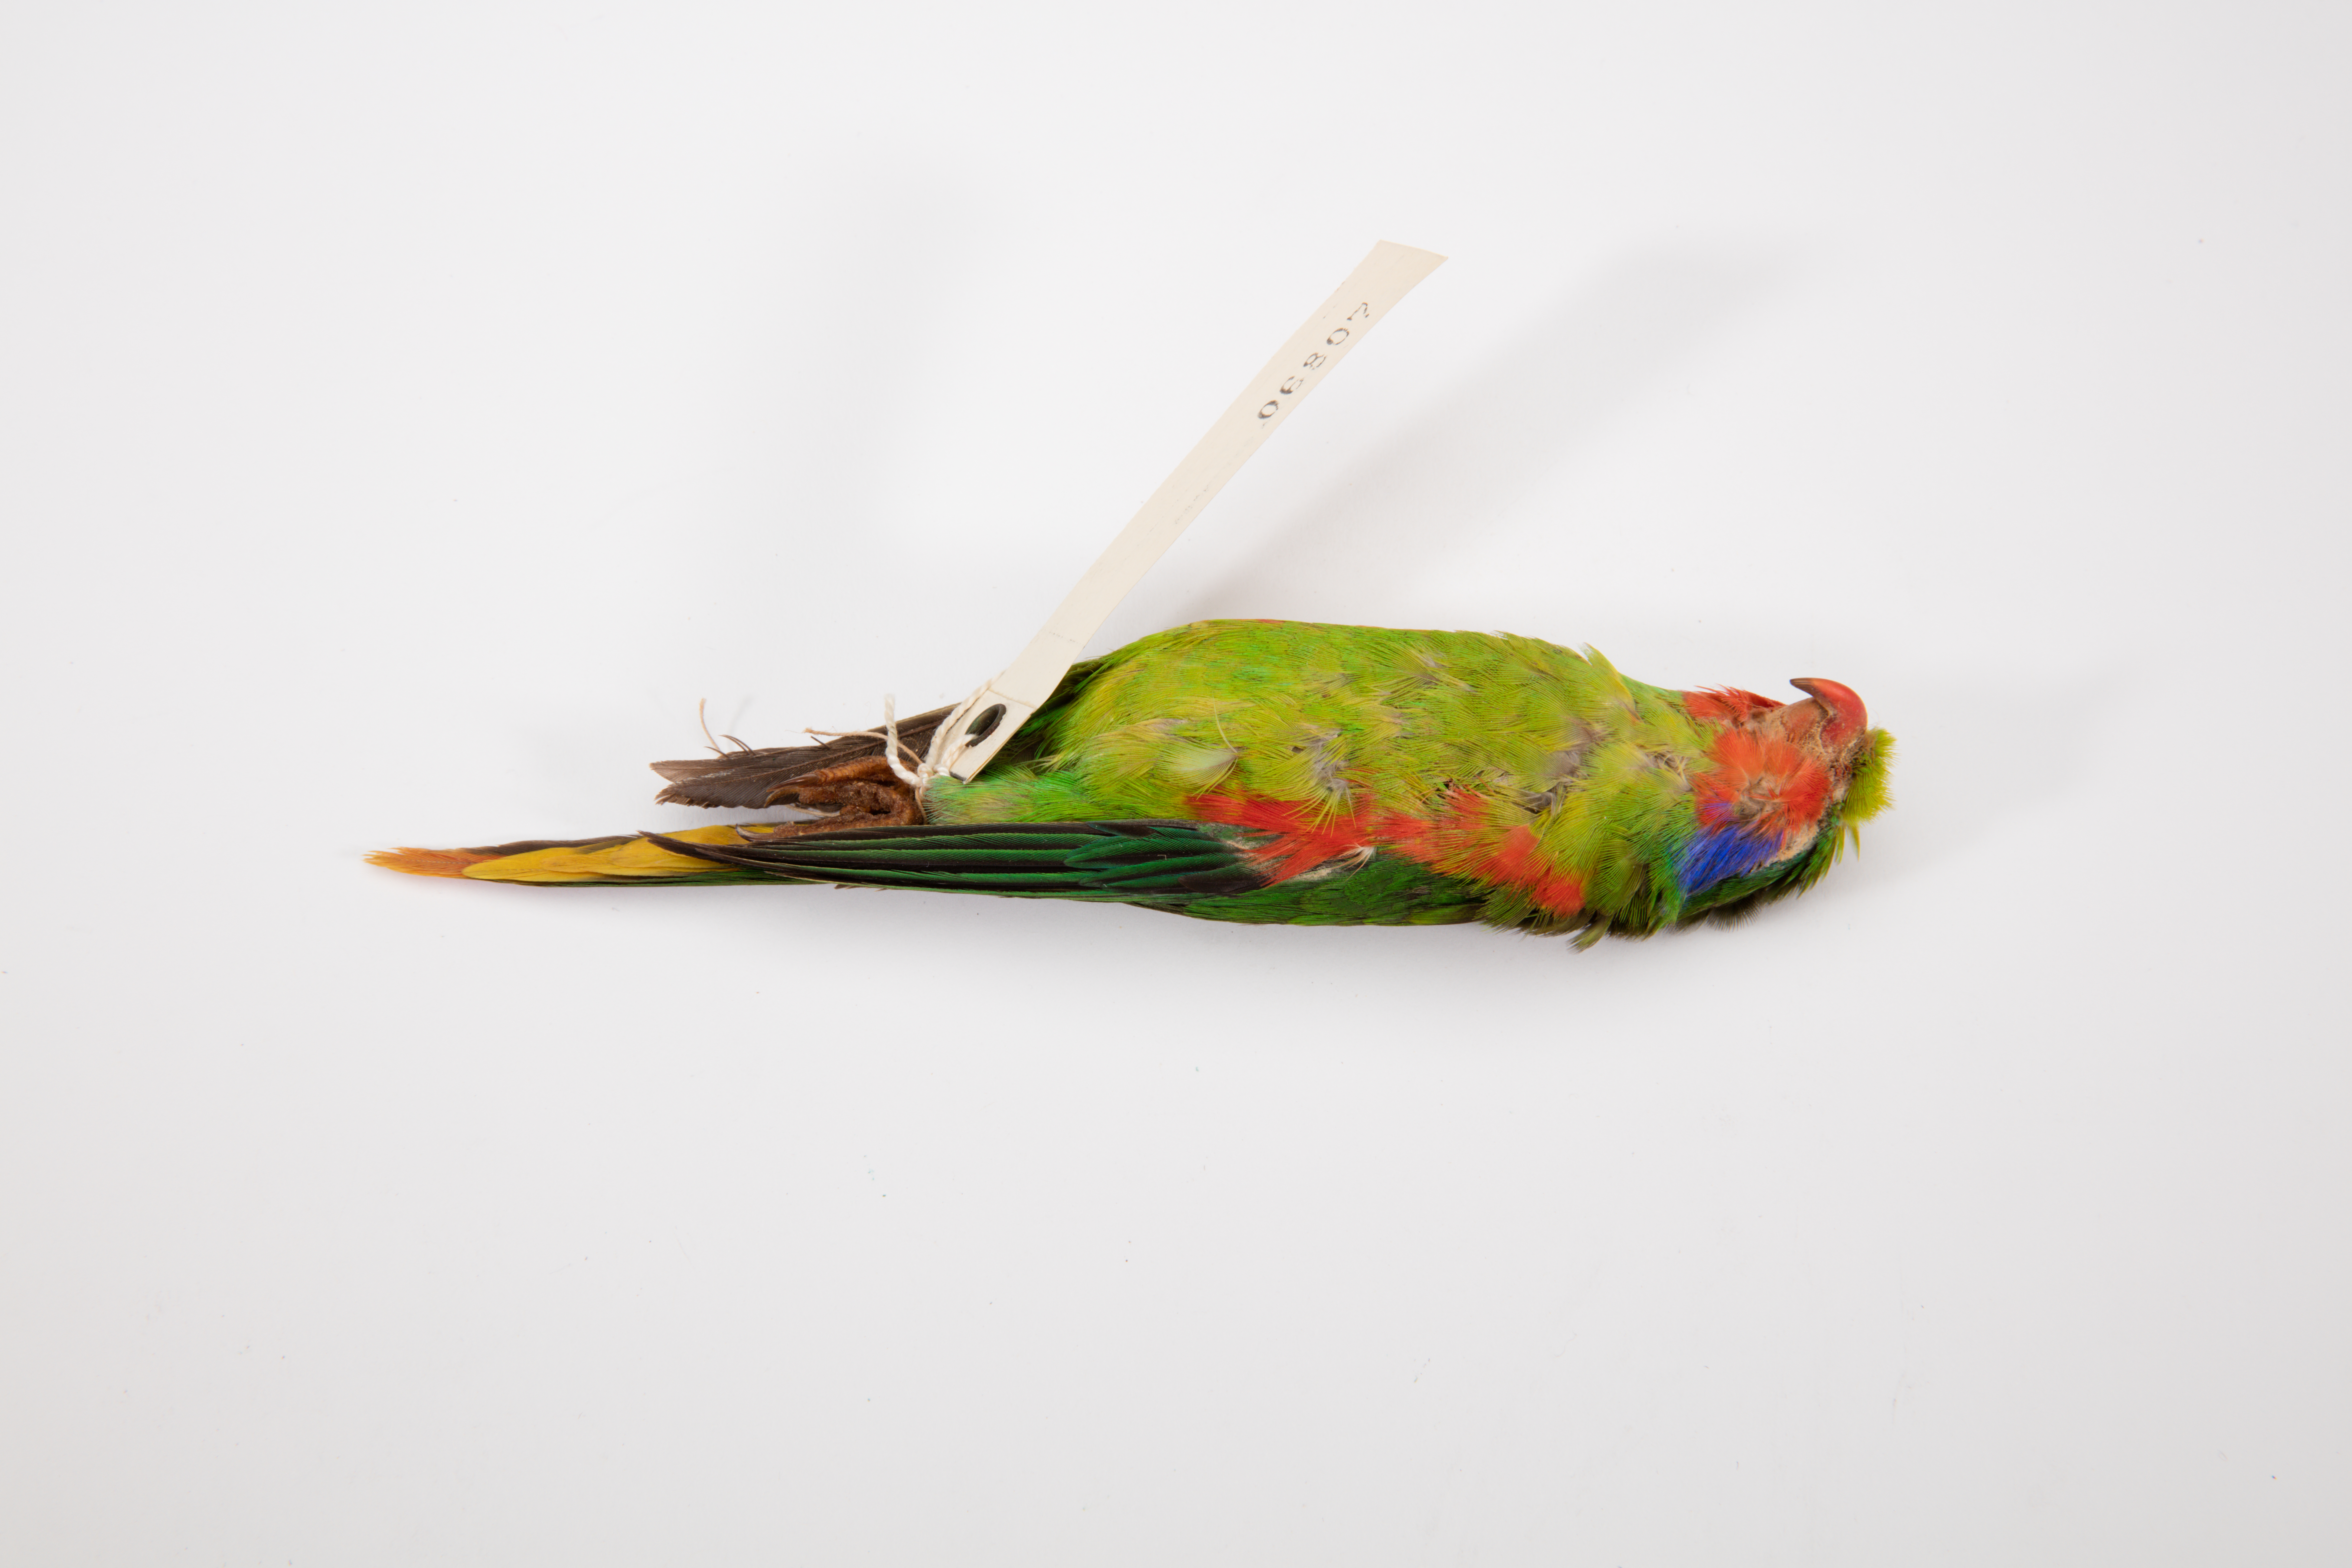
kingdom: Animalia
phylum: Chordata
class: Aves
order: Psittaciformes
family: Psittacidae
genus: Charmosyna
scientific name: Charmosyna placentis
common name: Red-flanked lorikeet
